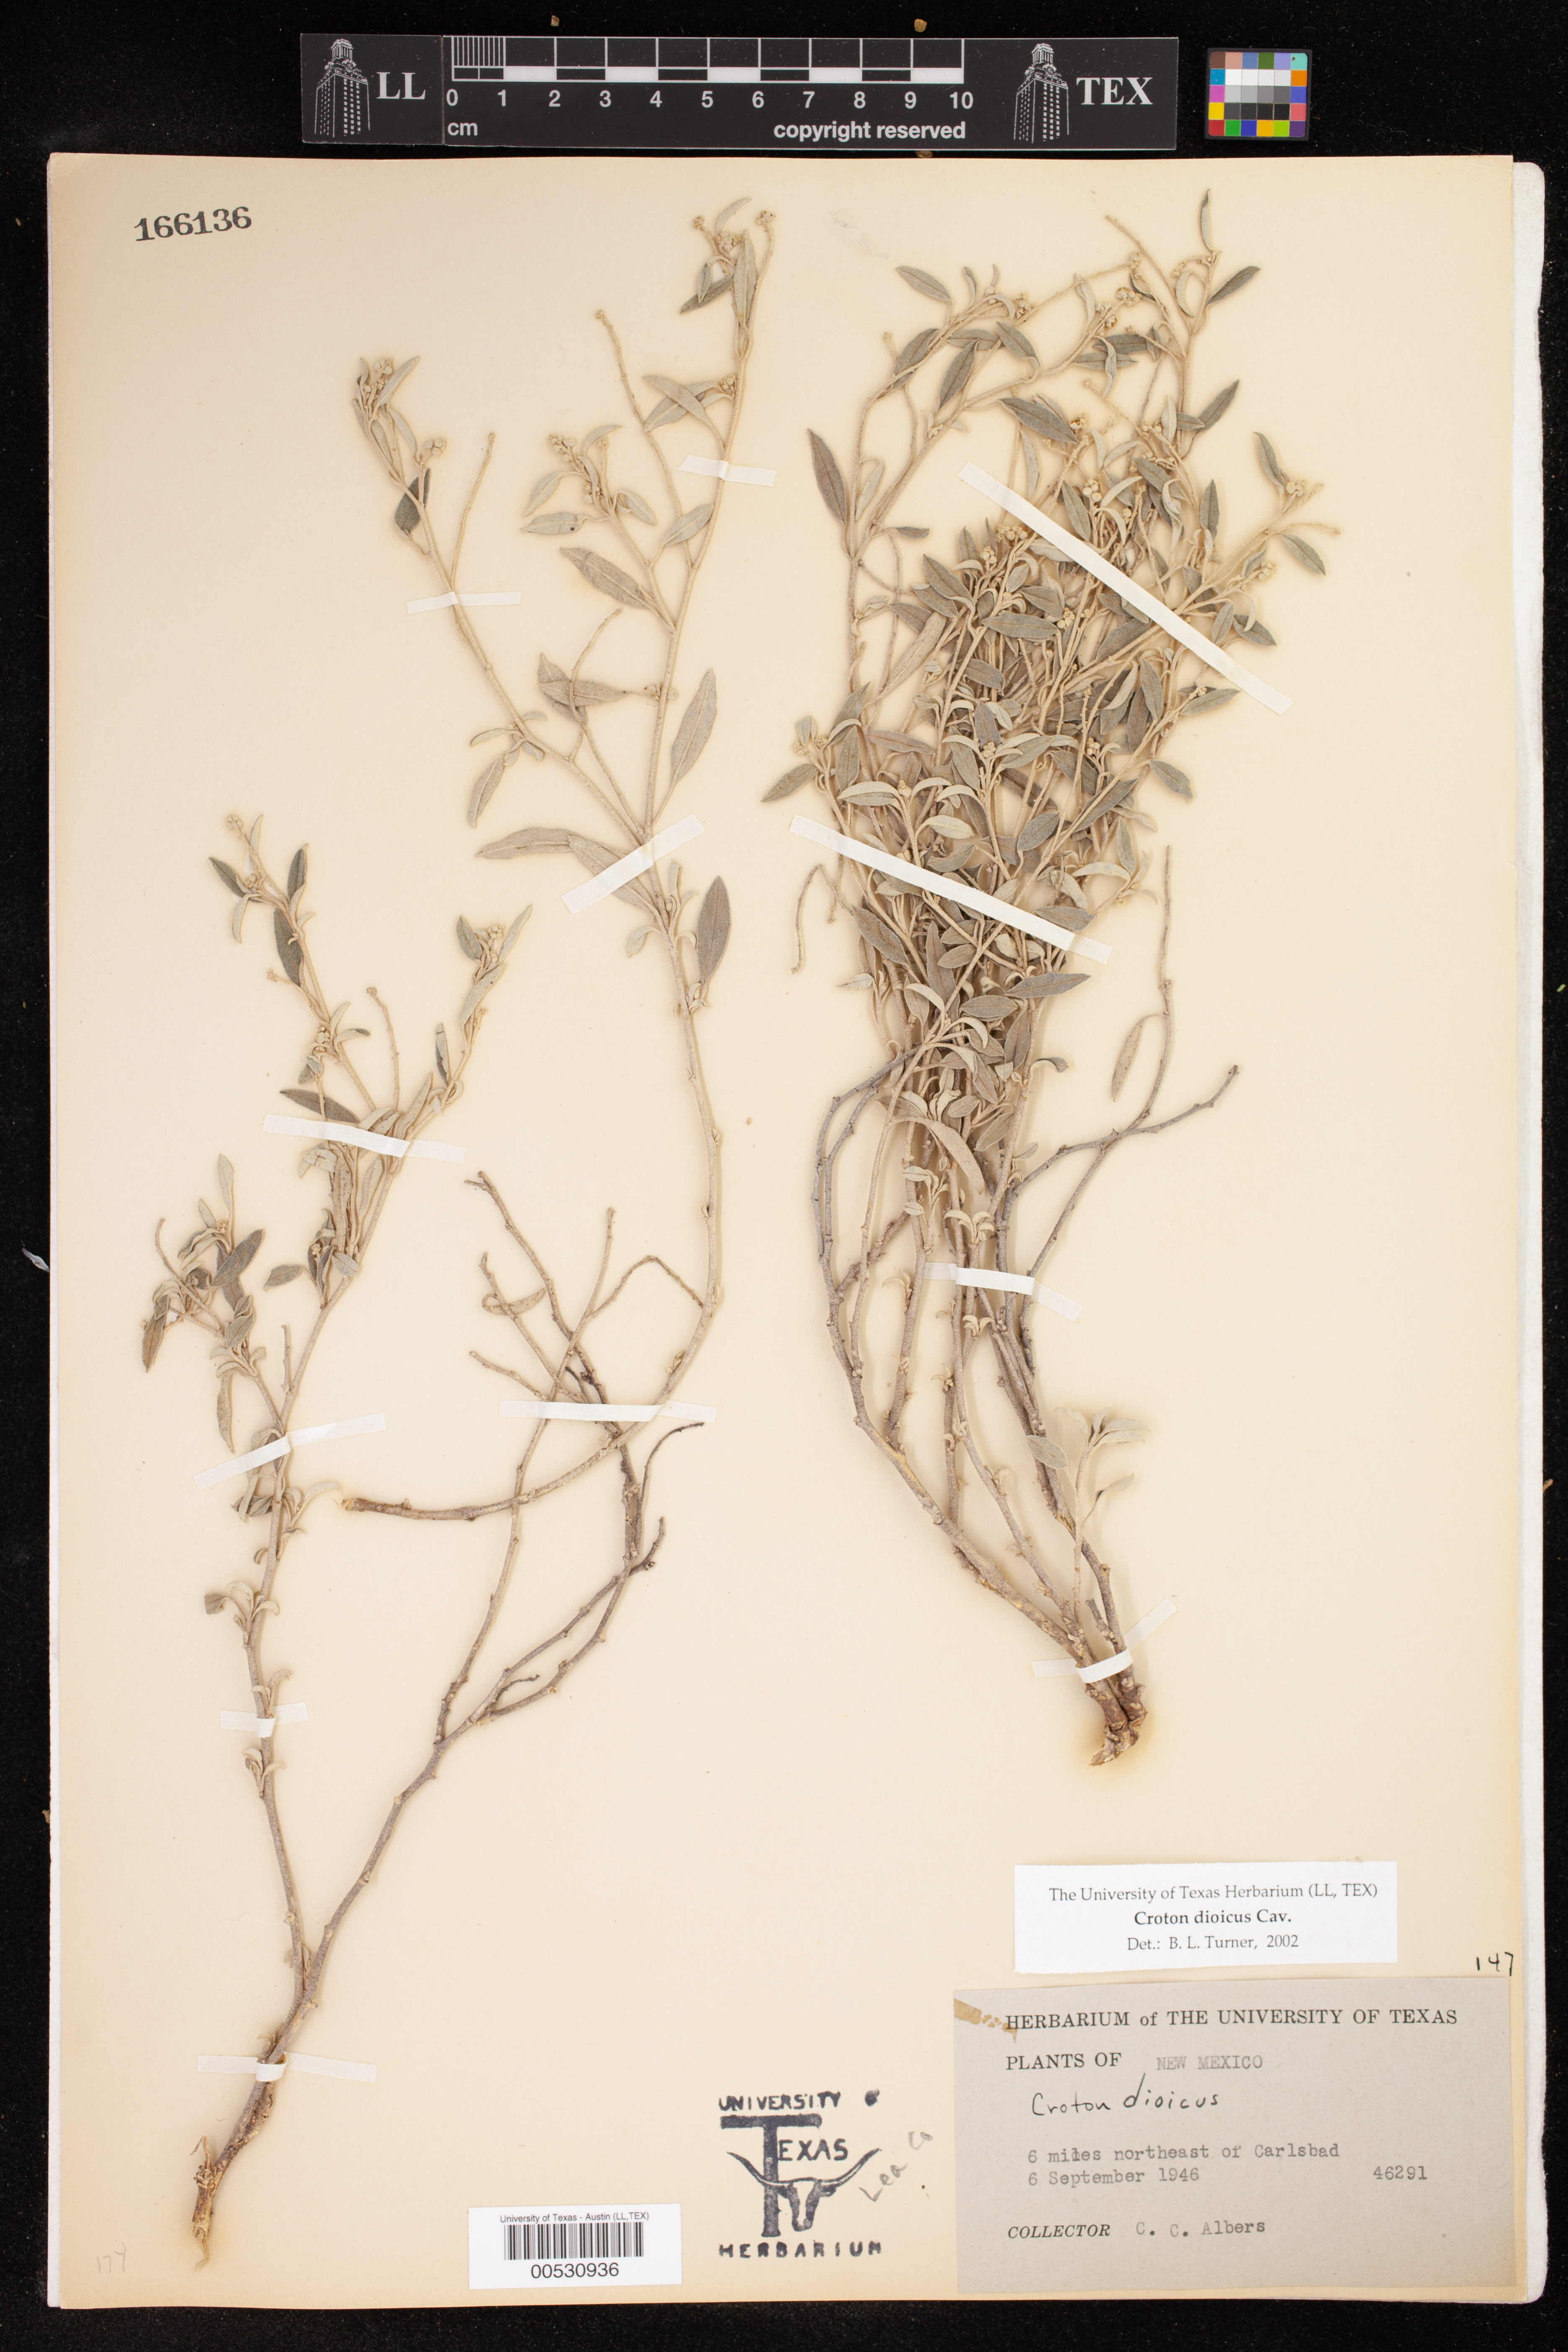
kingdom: Plantae
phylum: Tracheophyta
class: Magnoliopsida
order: Malpighiales
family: Euphorbiaceae
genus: Croton
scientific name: Croton dioicus
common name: Grassland croton
